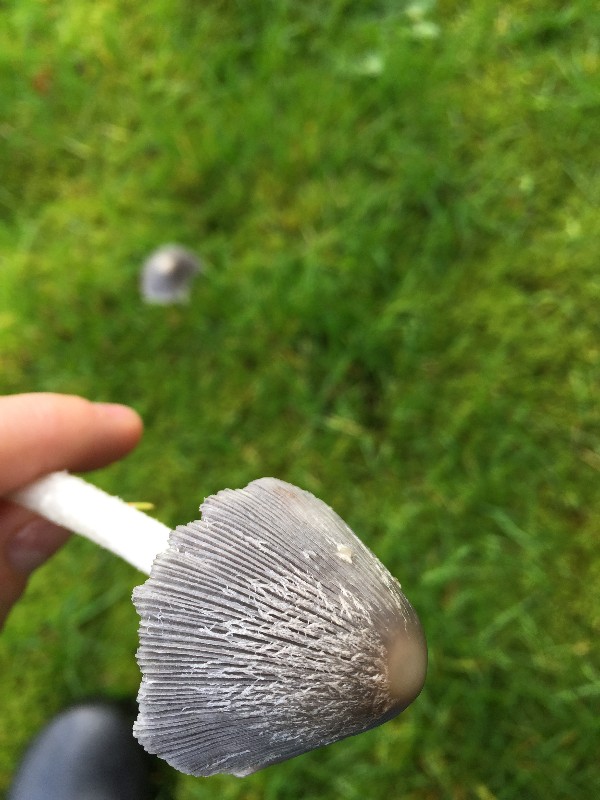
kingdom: Fungi
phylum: Basidiomycota
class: Agaricomycetes
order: Agaricales
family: Psathyrellaceae
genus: Coprinopsis
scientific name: Coprinopsis lagopus
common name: dunstokket blækhat
